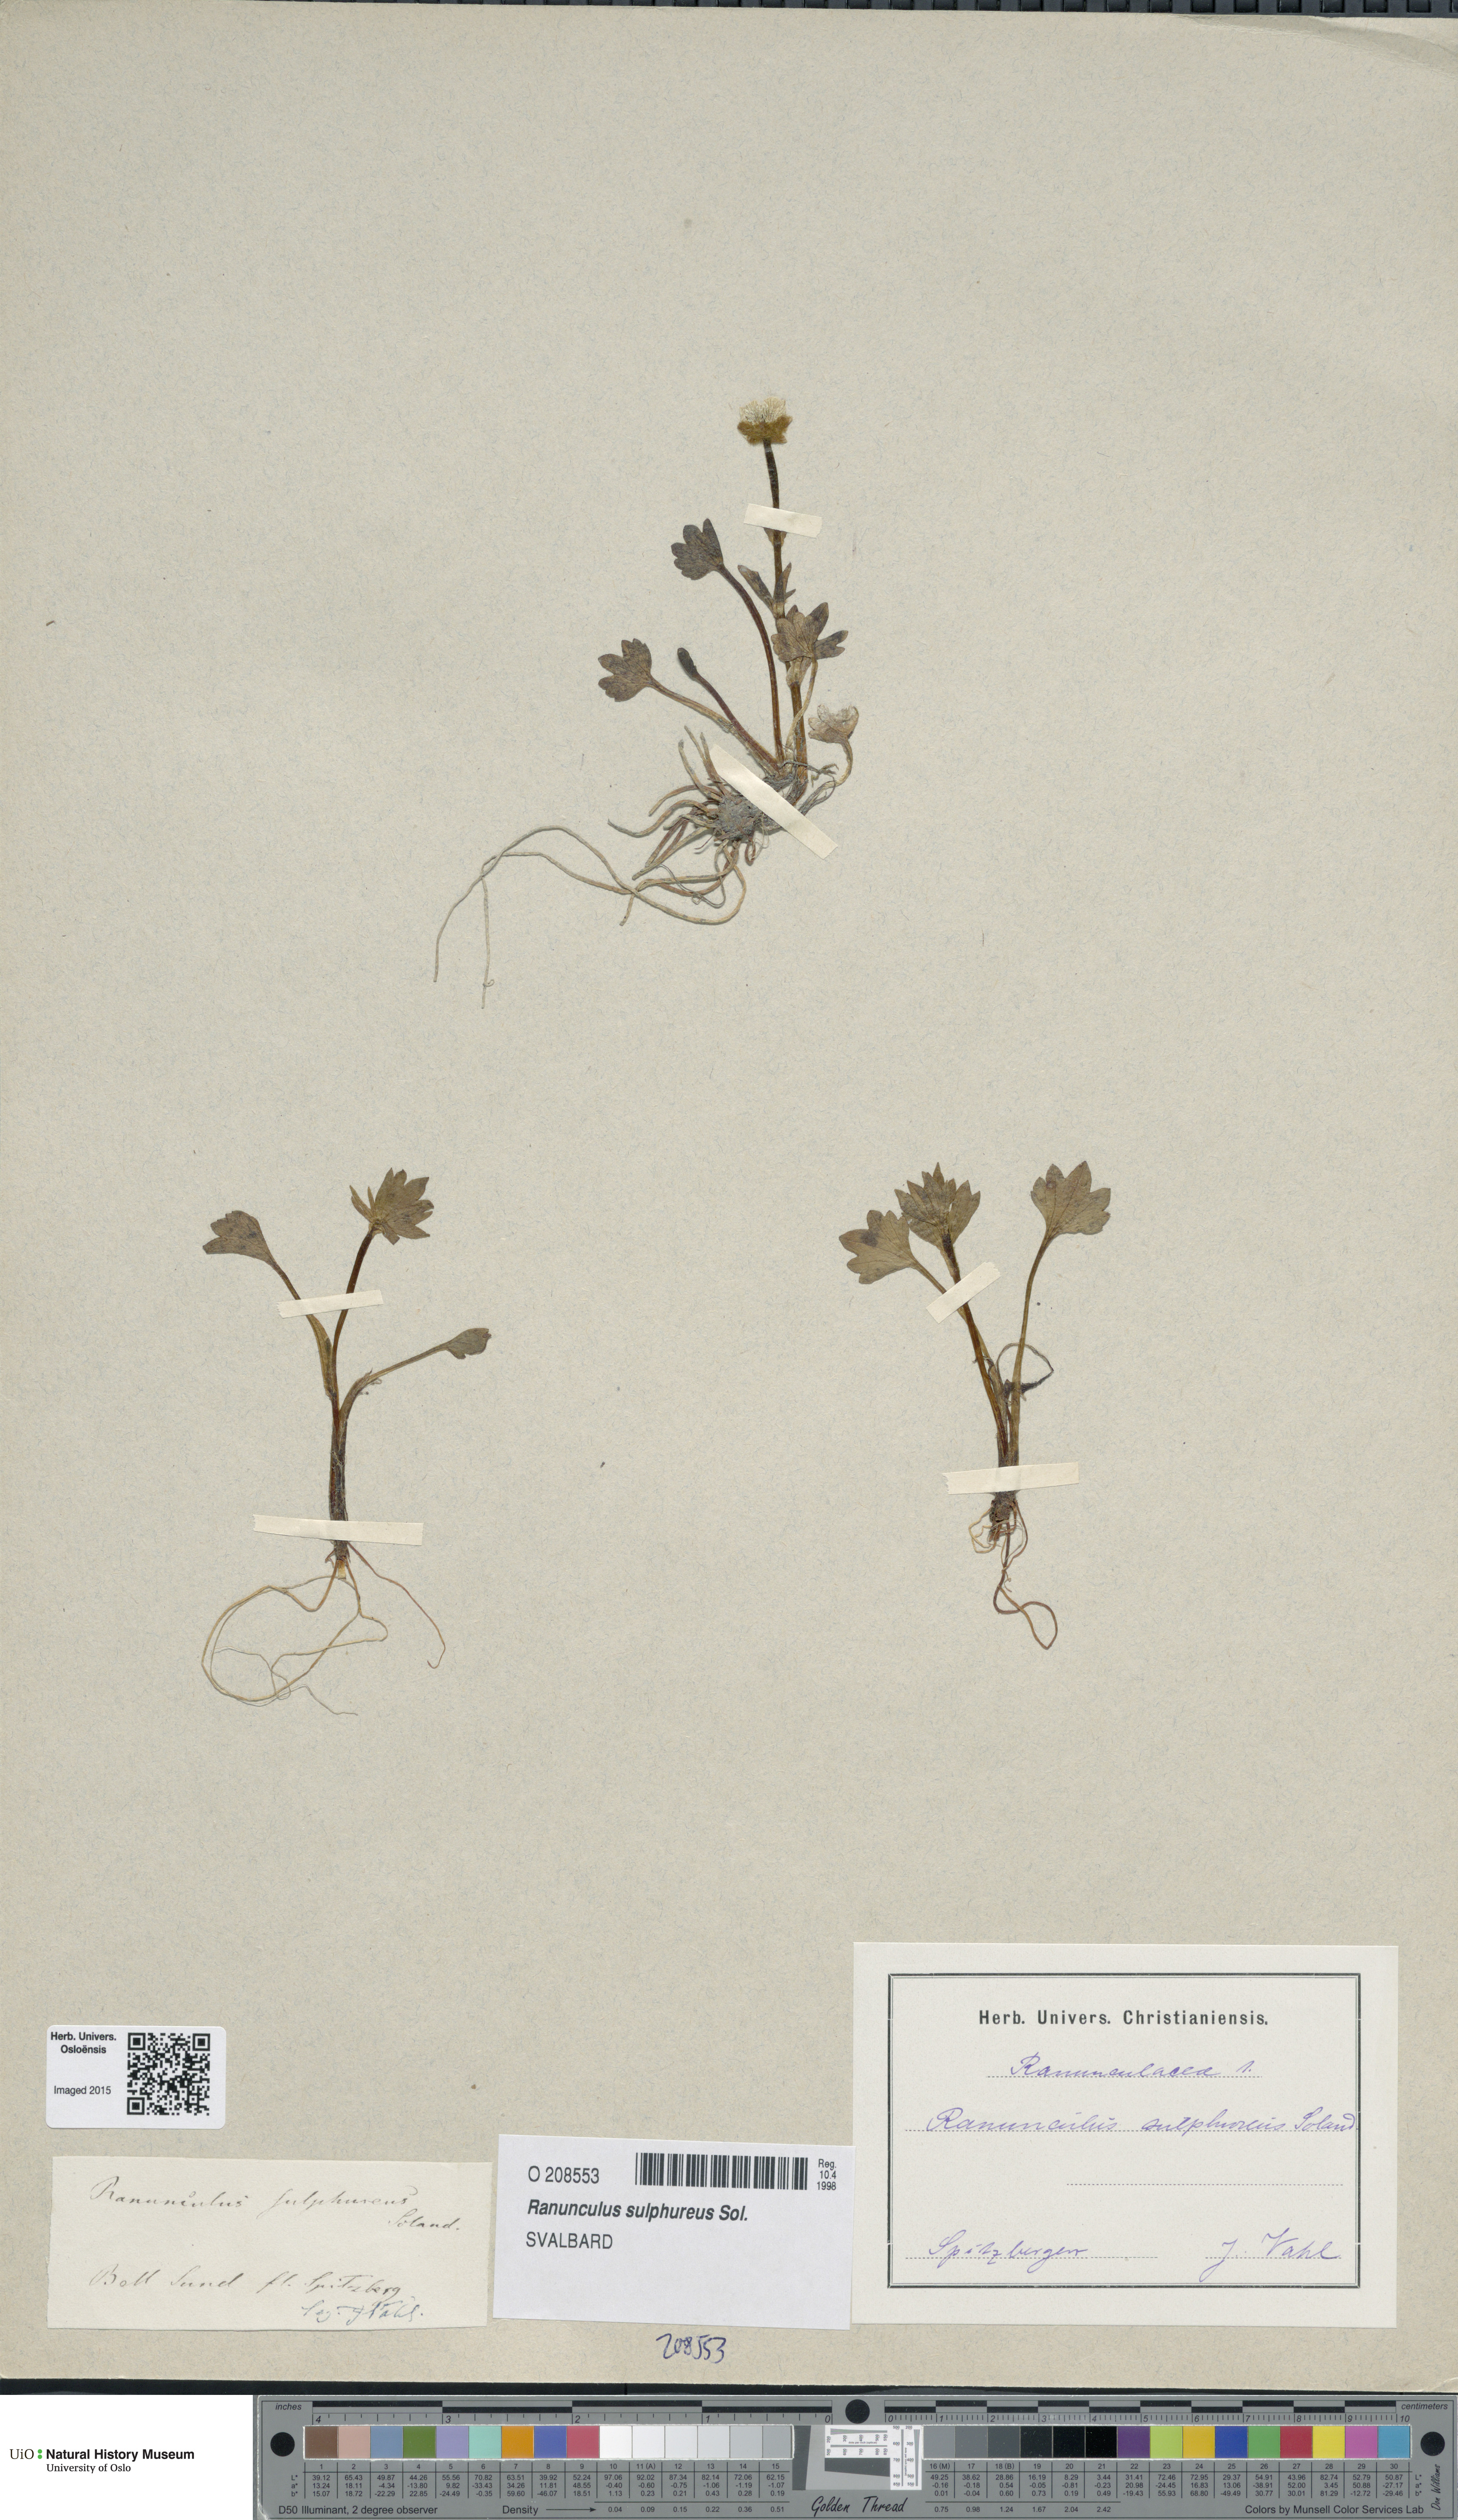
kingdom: Plantae
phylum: Tracheophyta
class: Magnoliopsida
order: Ranunculales
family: Ranunculaceae
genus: Ranunculus
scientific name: Ranunculus sulphureus
